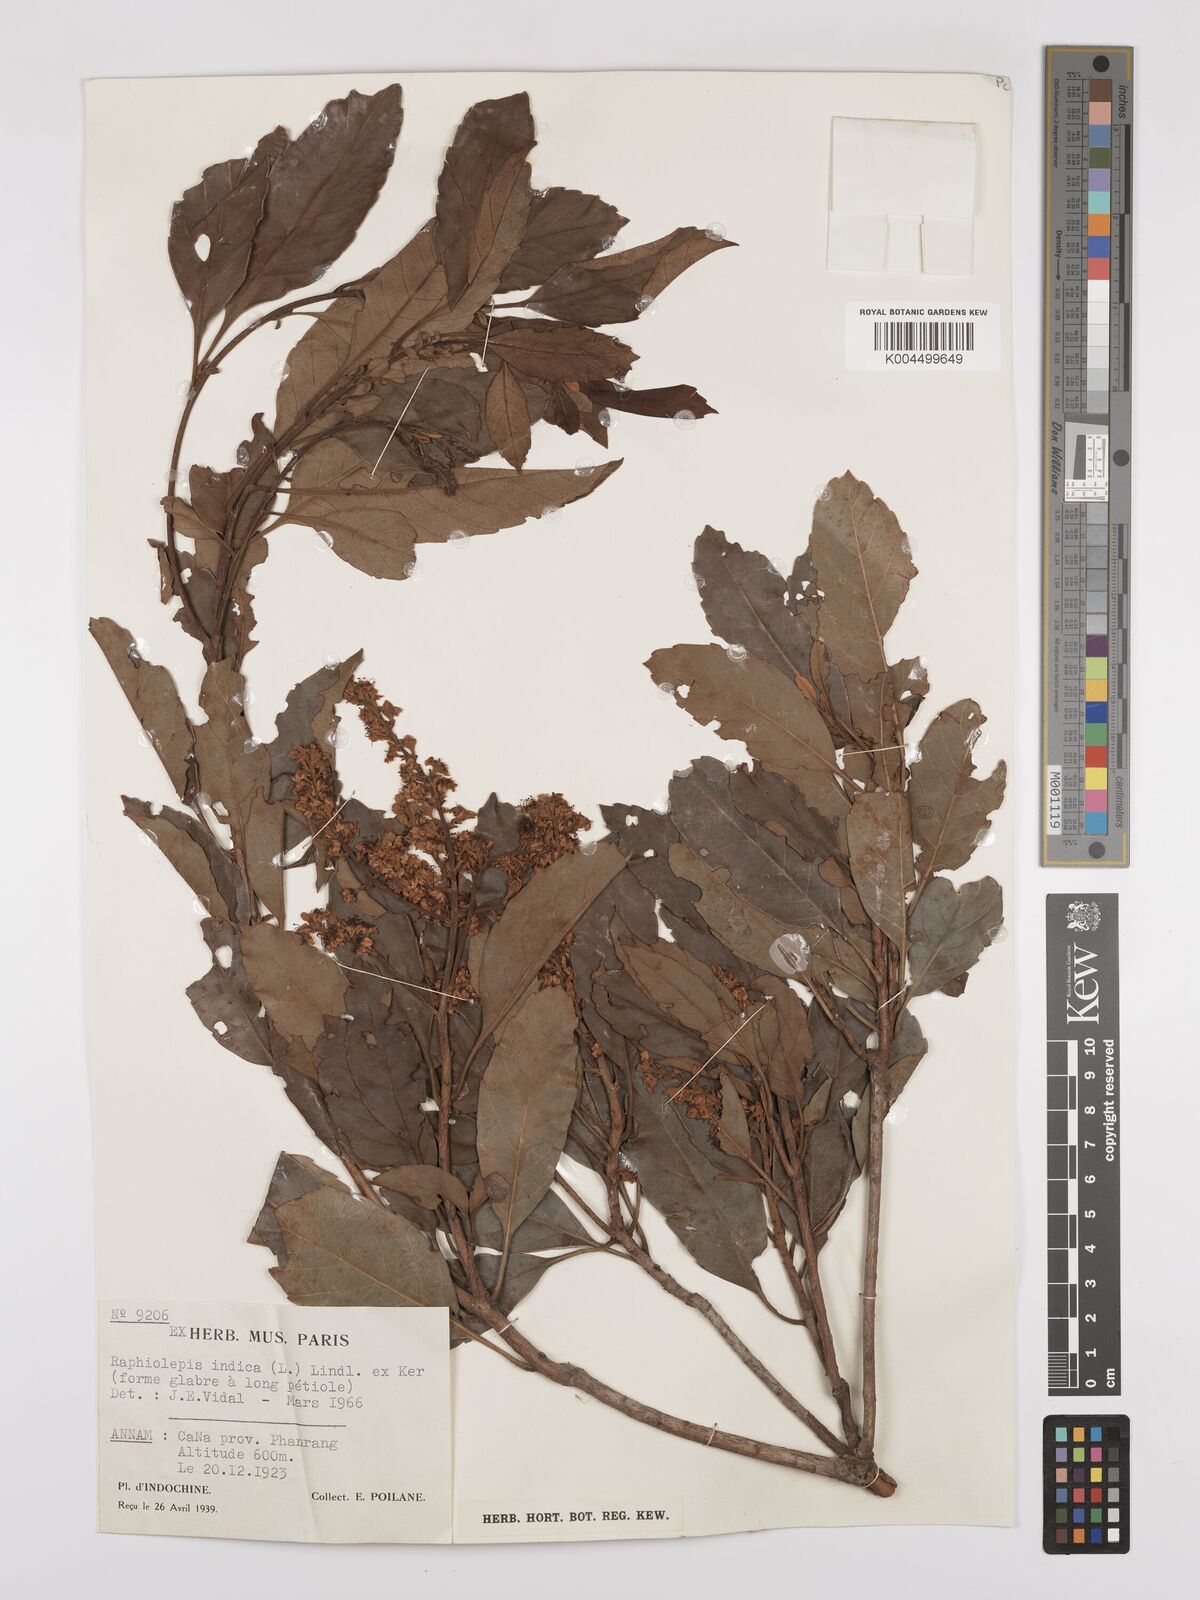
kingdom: Plantae
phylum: Tracheophyta
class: Magnoliopsida
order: Rosales
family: Rosaceae
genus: Rhaphiolepis
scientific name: Rhaphiolepis indica
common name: India-hawthorn
